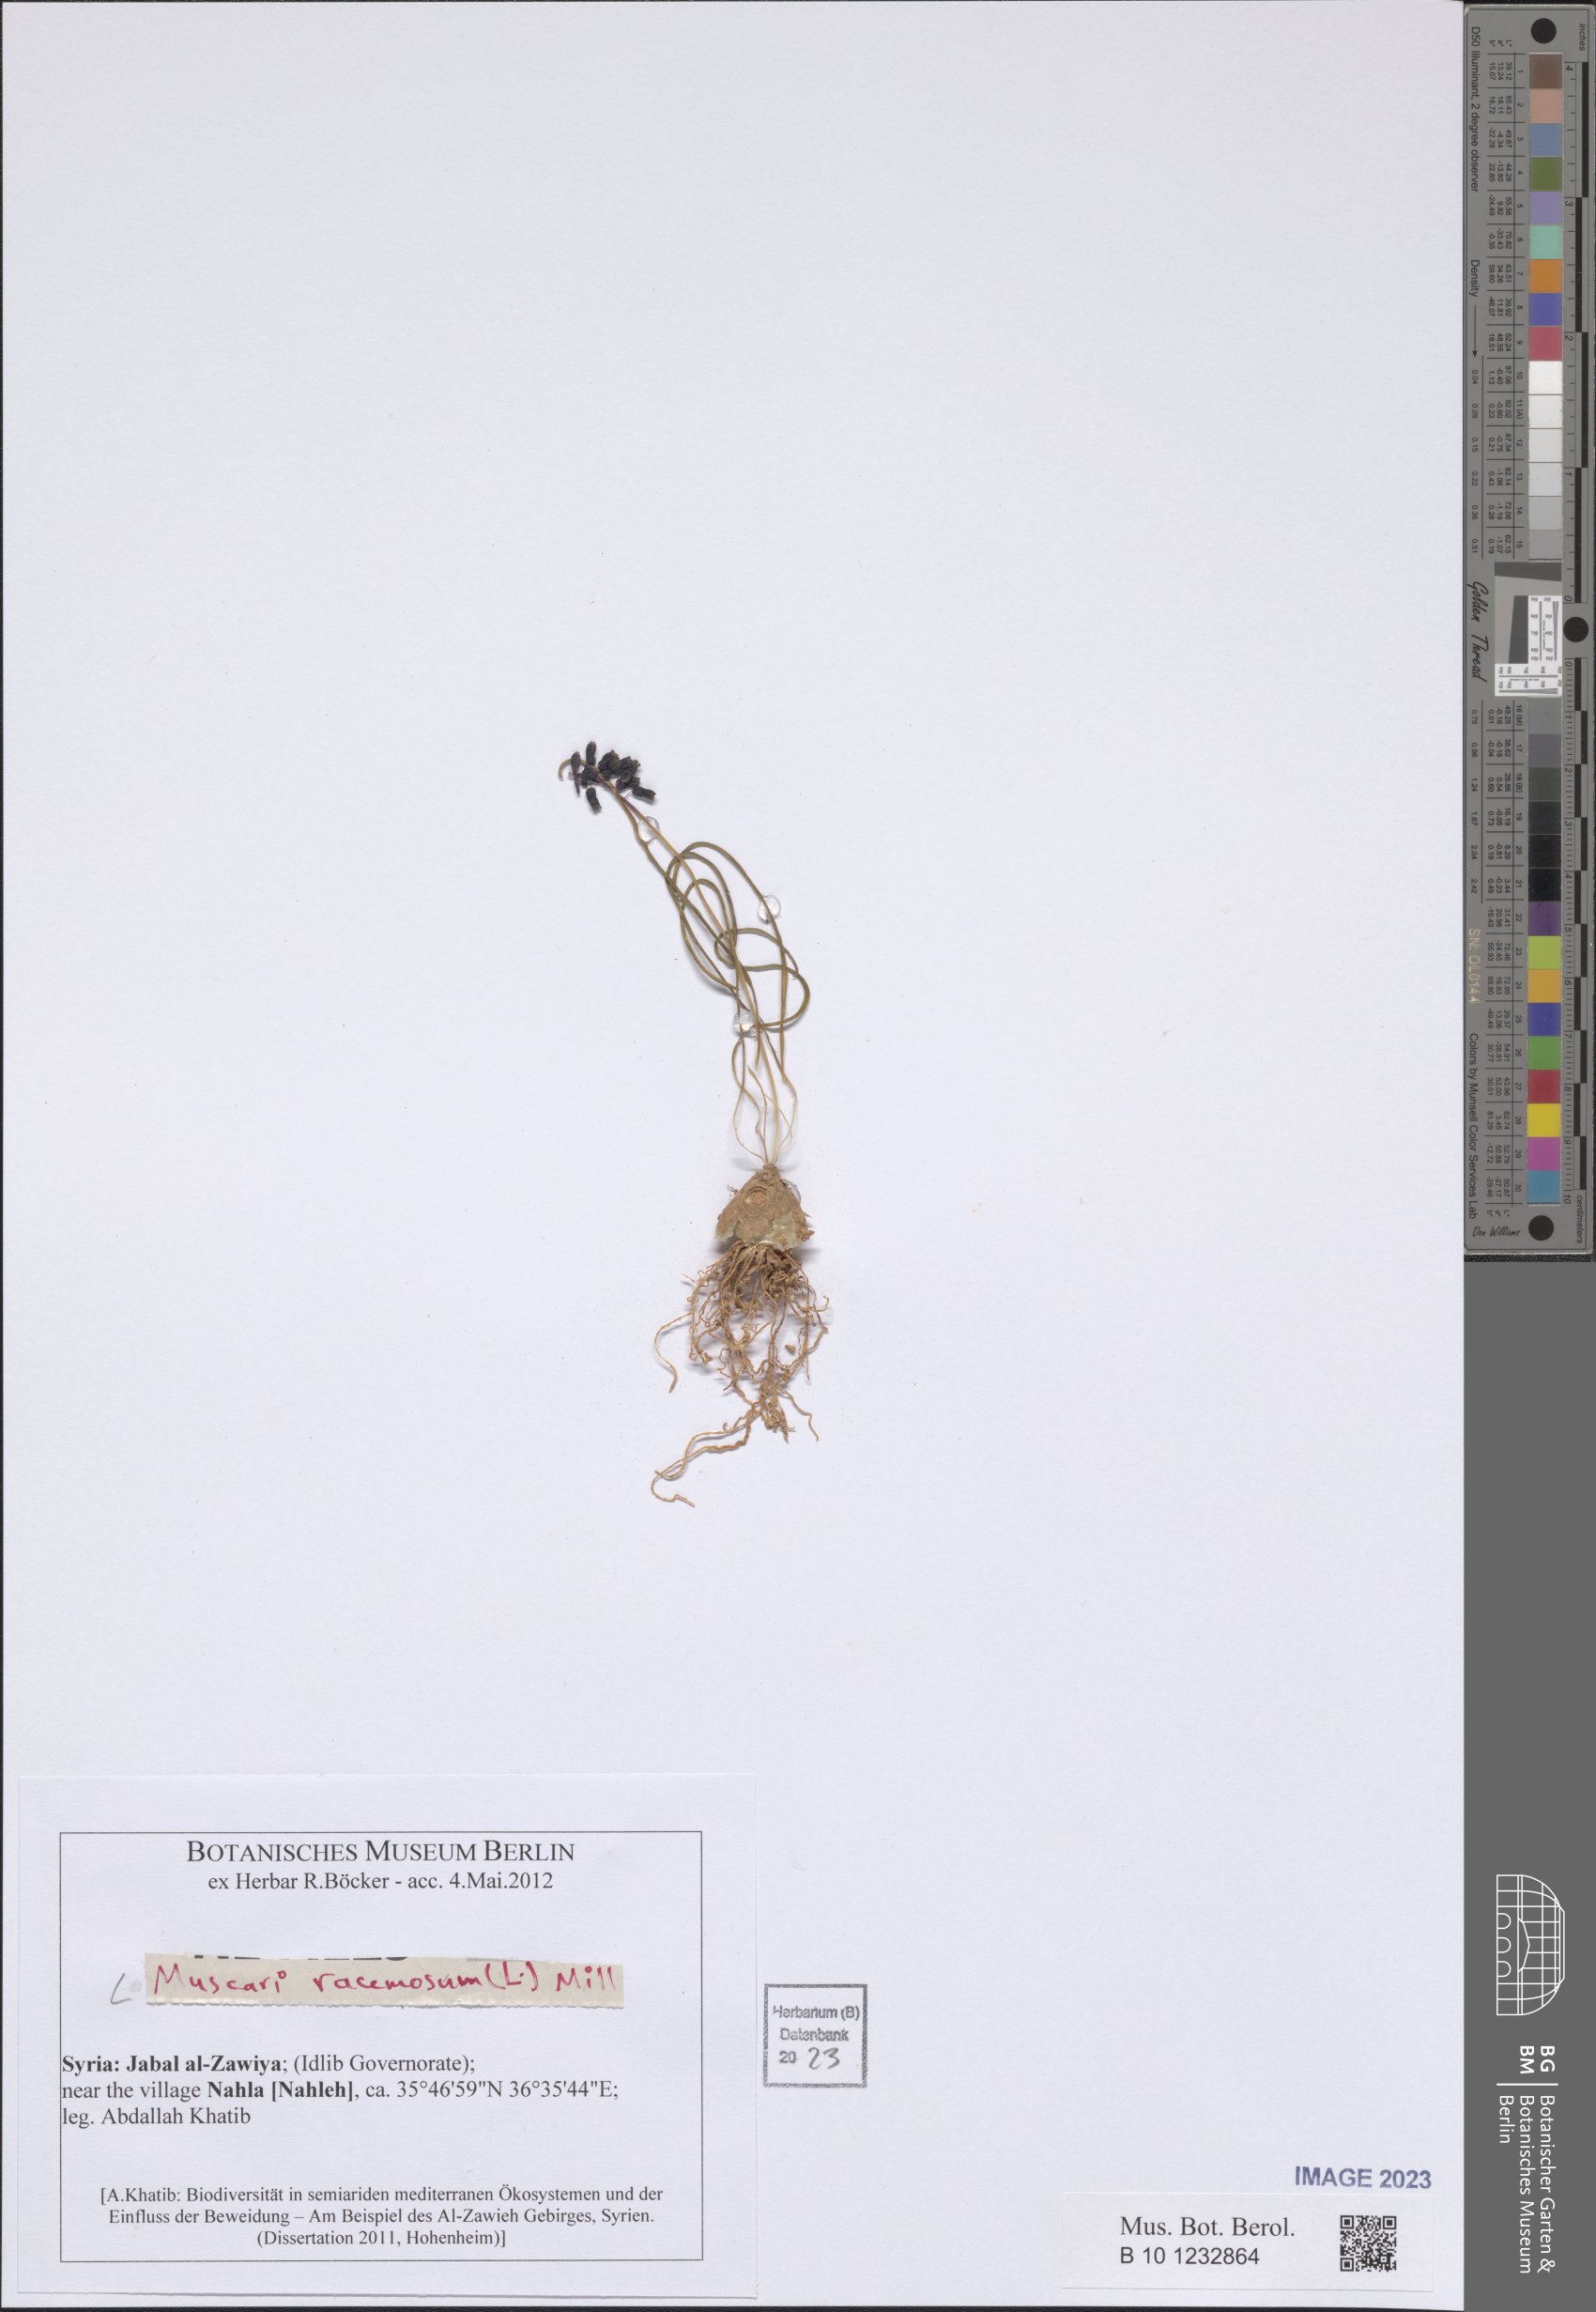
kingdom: Plantae
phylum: Tracheophyta
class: Liliopsida
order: Asparagales
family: Asparagaceae
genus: Muscarimia
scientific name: Muscarimia muscari
